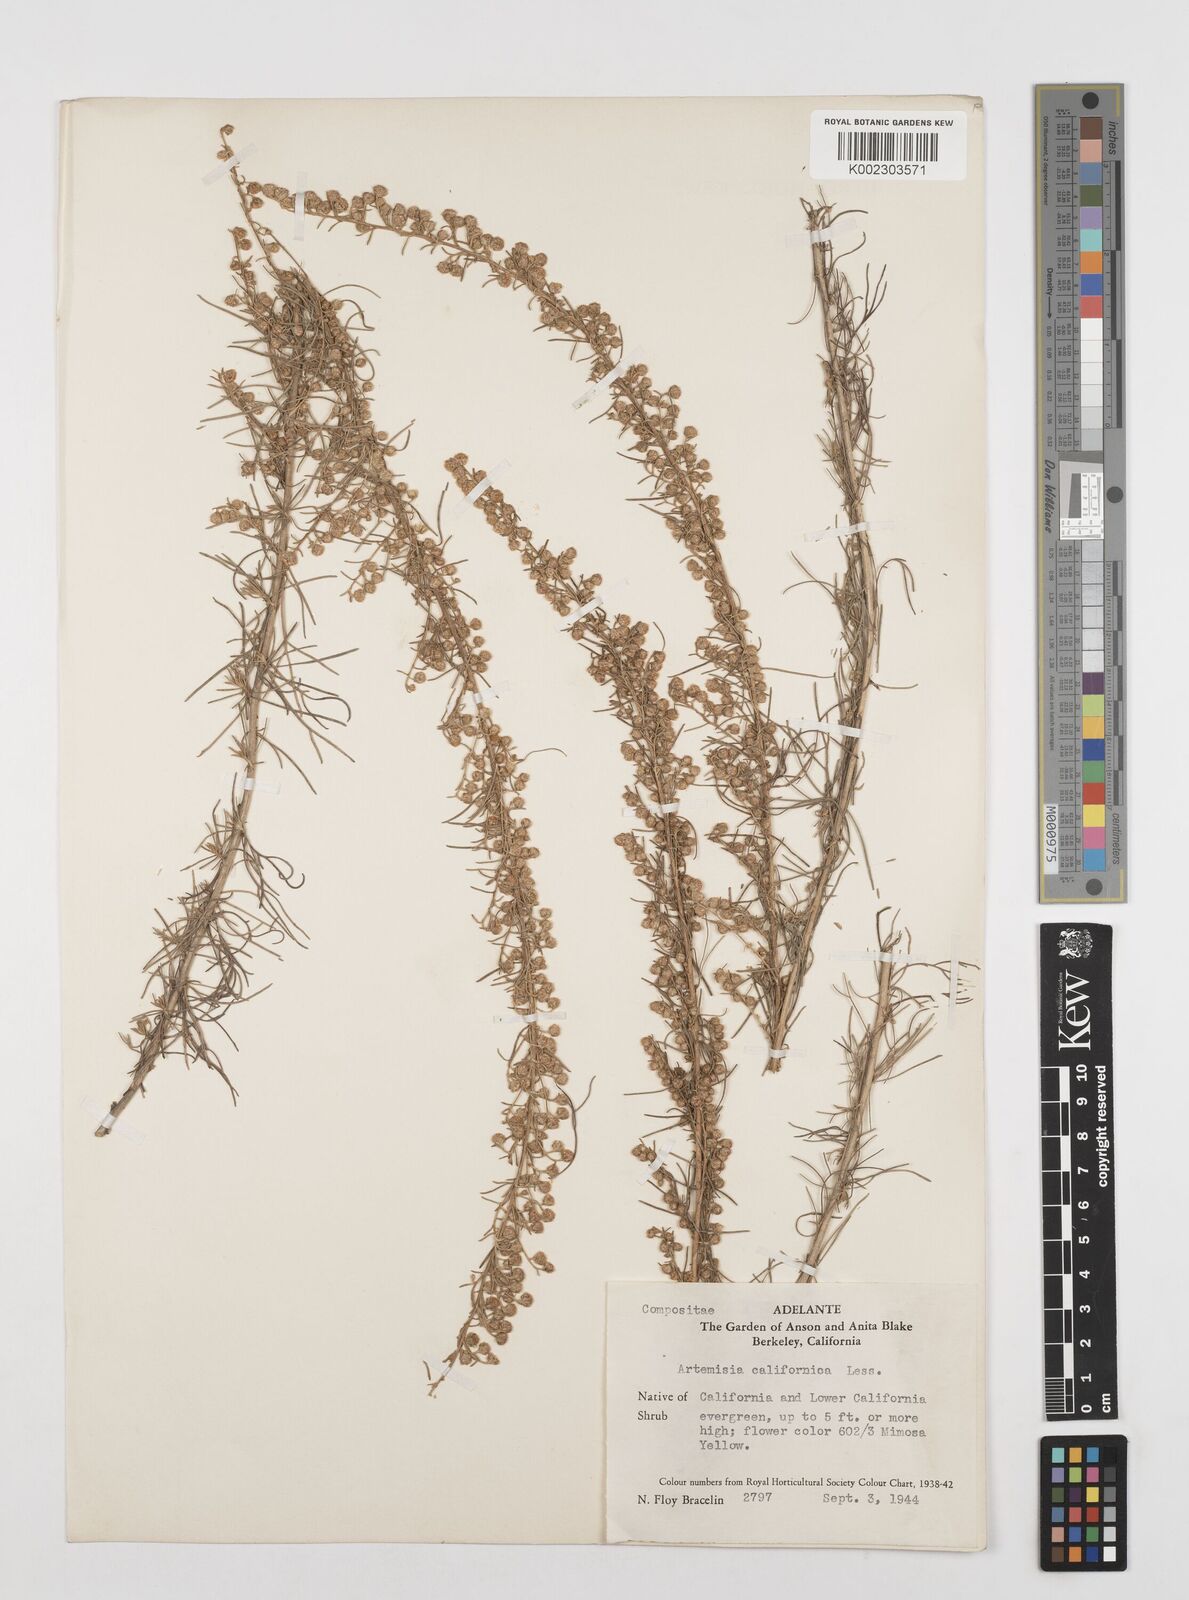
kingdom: Plantae
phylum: Tracheophyta
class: Magnoliopsida
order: Asterales
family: Asteraceae
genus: Artemisia
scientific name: Artemisia californica
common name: California sagebrush
